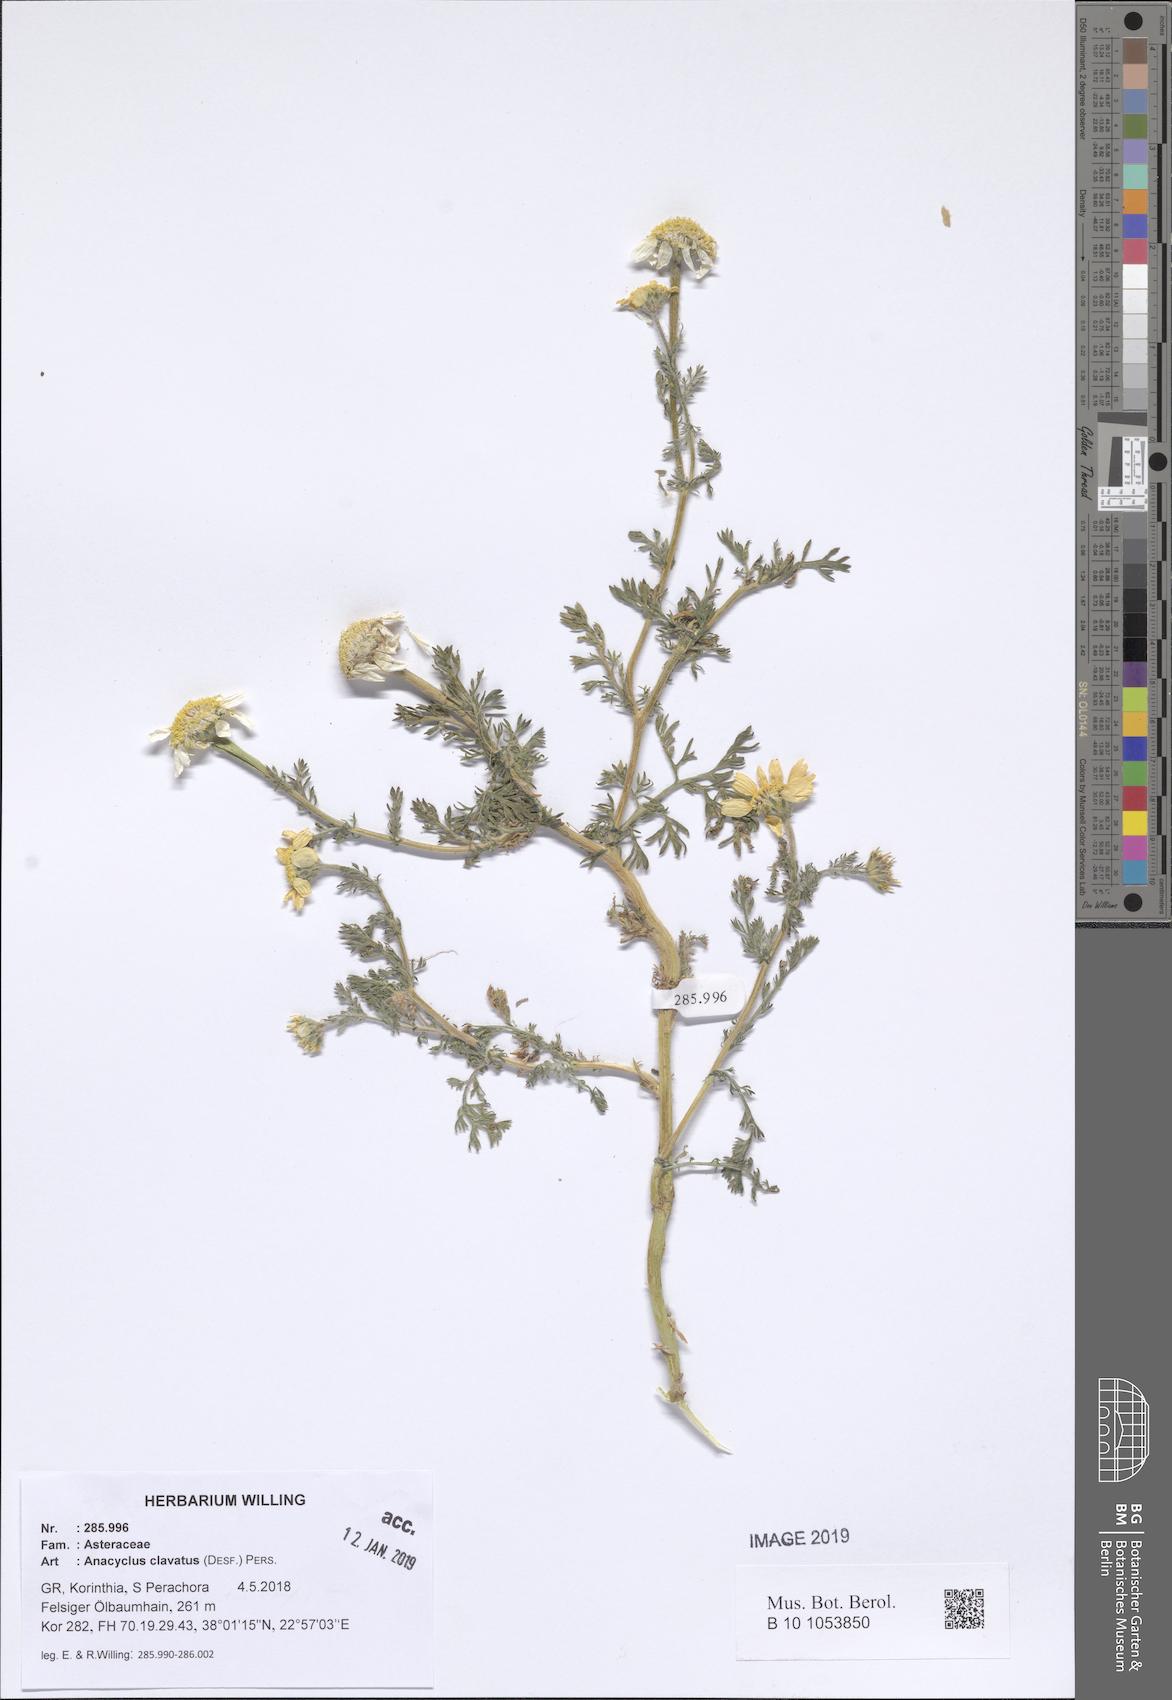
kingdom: Plantae
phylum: Tracheophyta
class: Magnoliopsida
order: Asterales
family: Asteraceae
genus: Anacyclus
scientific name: Anacyclus clavatus
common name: Whitebuttons
